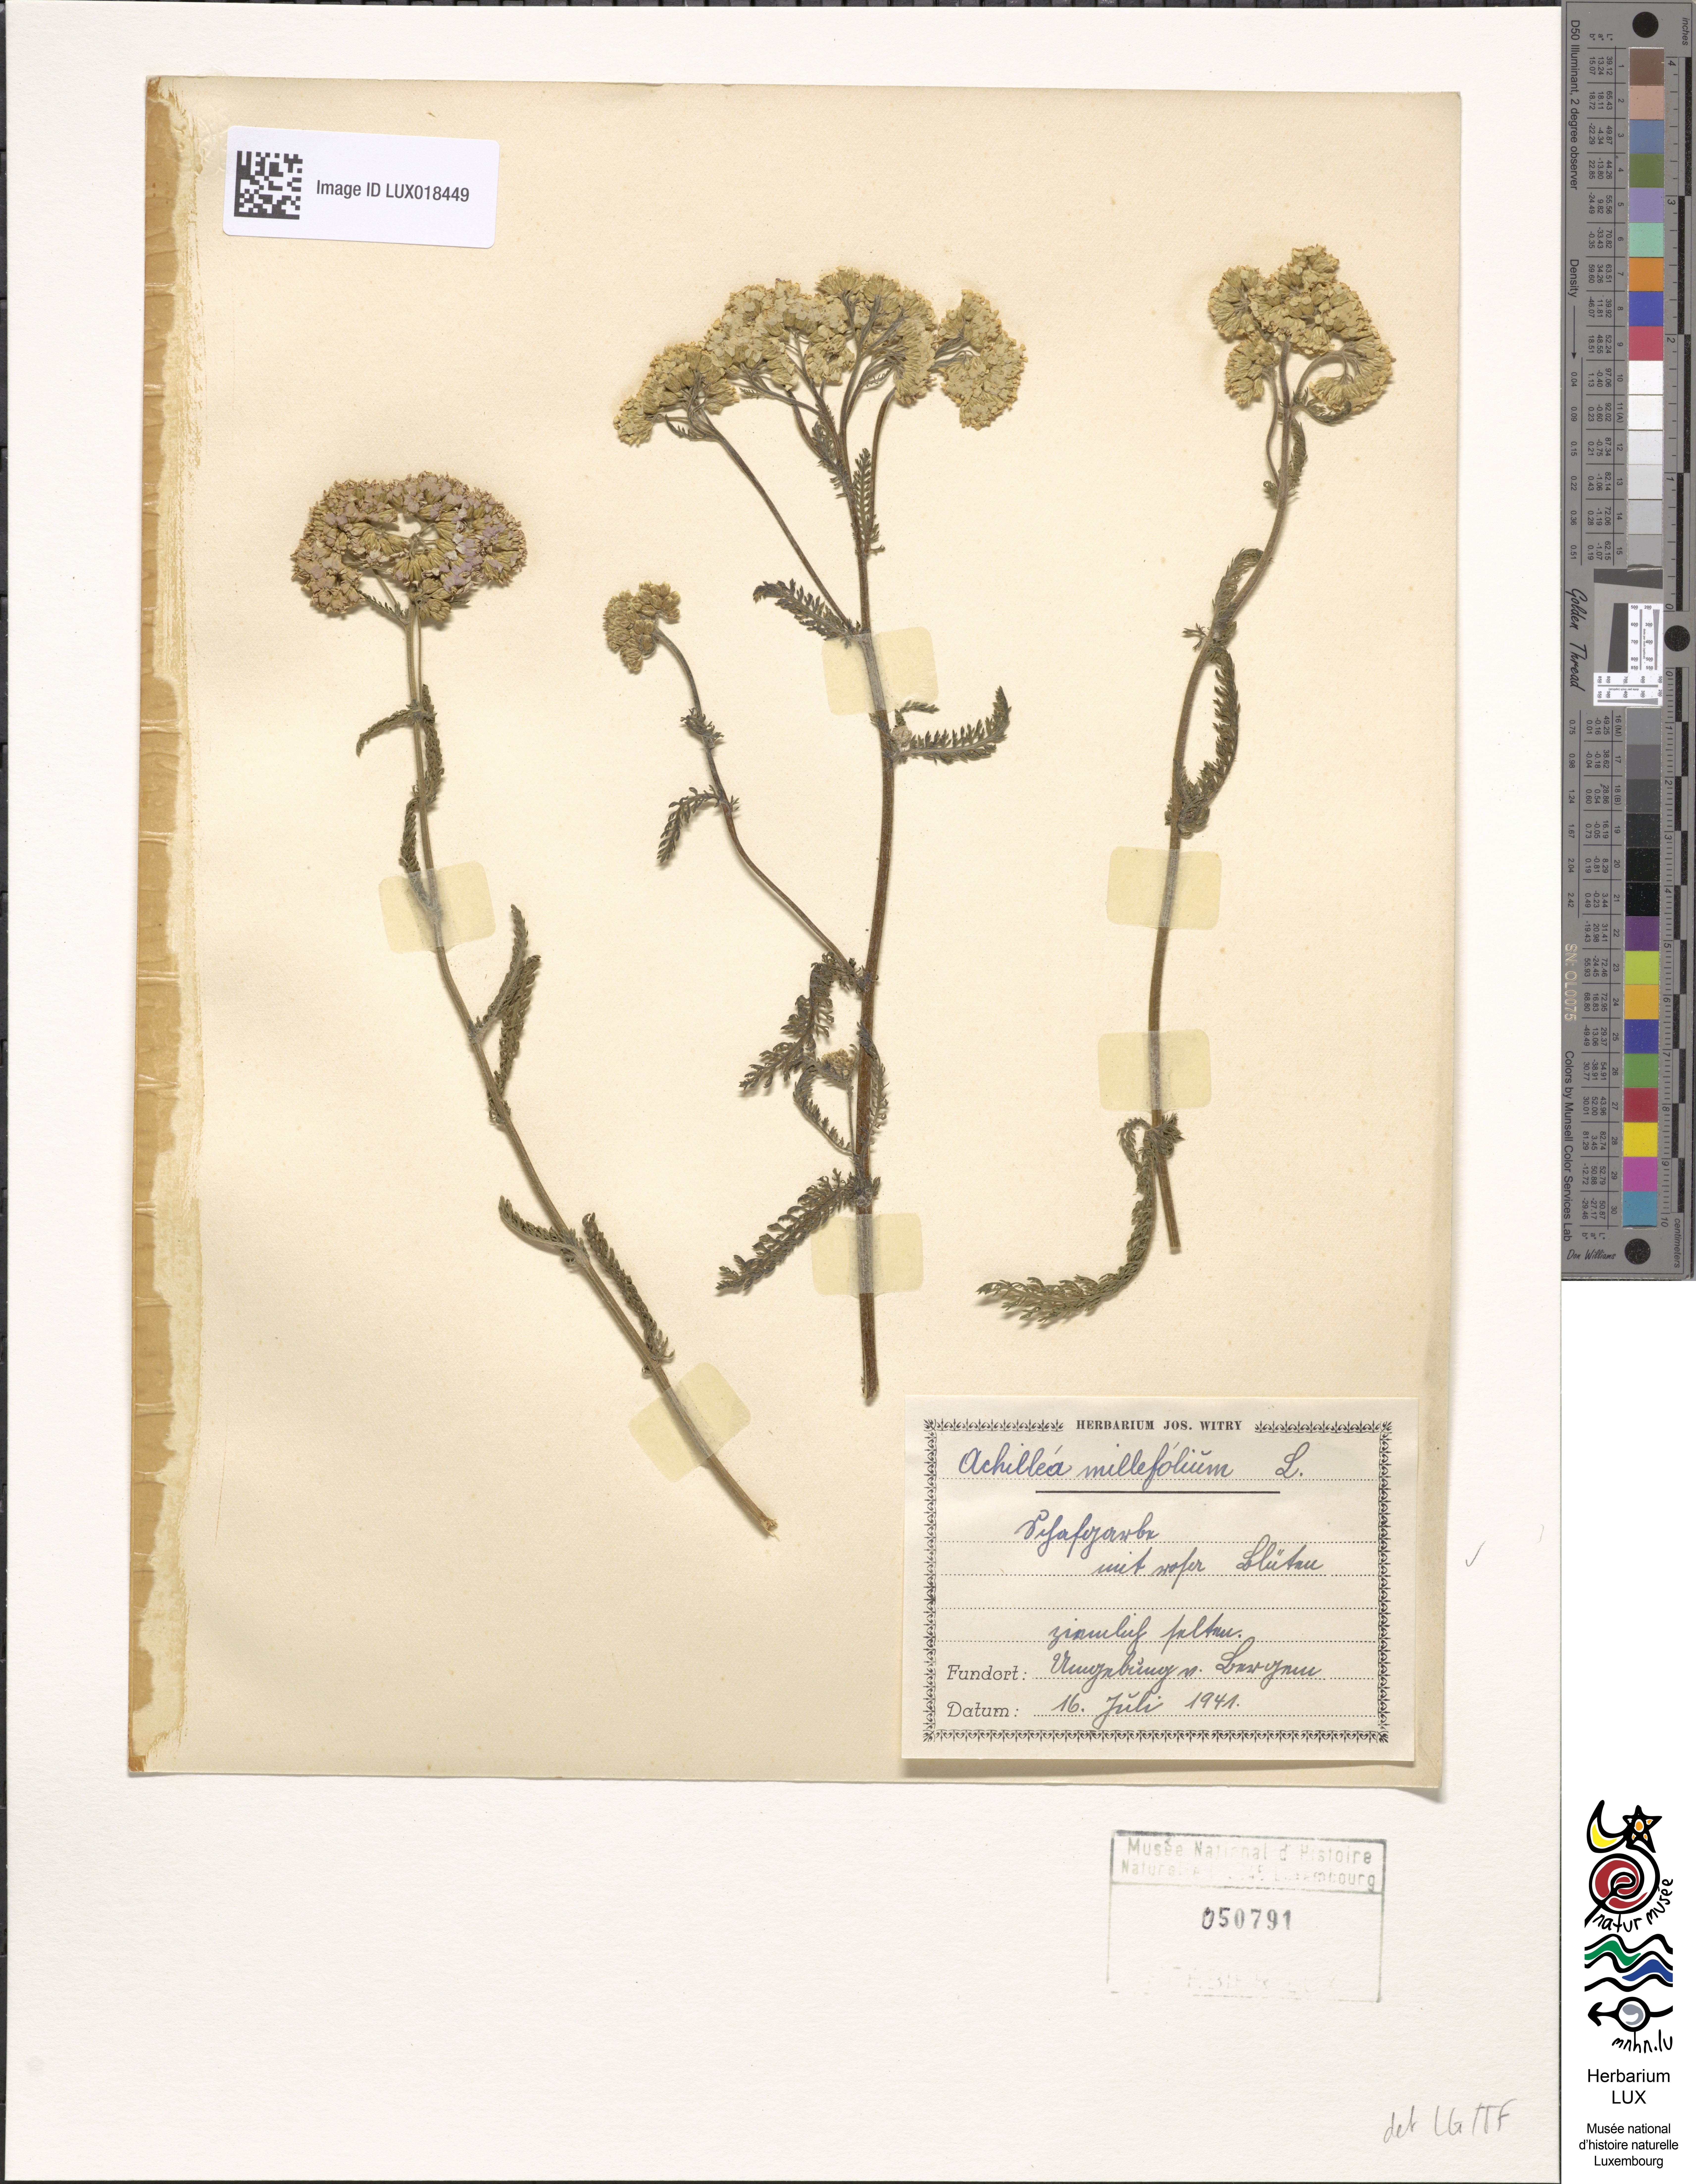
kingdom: Plantae
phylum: Tracheophyta
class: Magnoliopsida
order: Asterales
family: Asteraceae
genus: Achillea
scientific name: Achillea millefolium
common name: Yarrow
